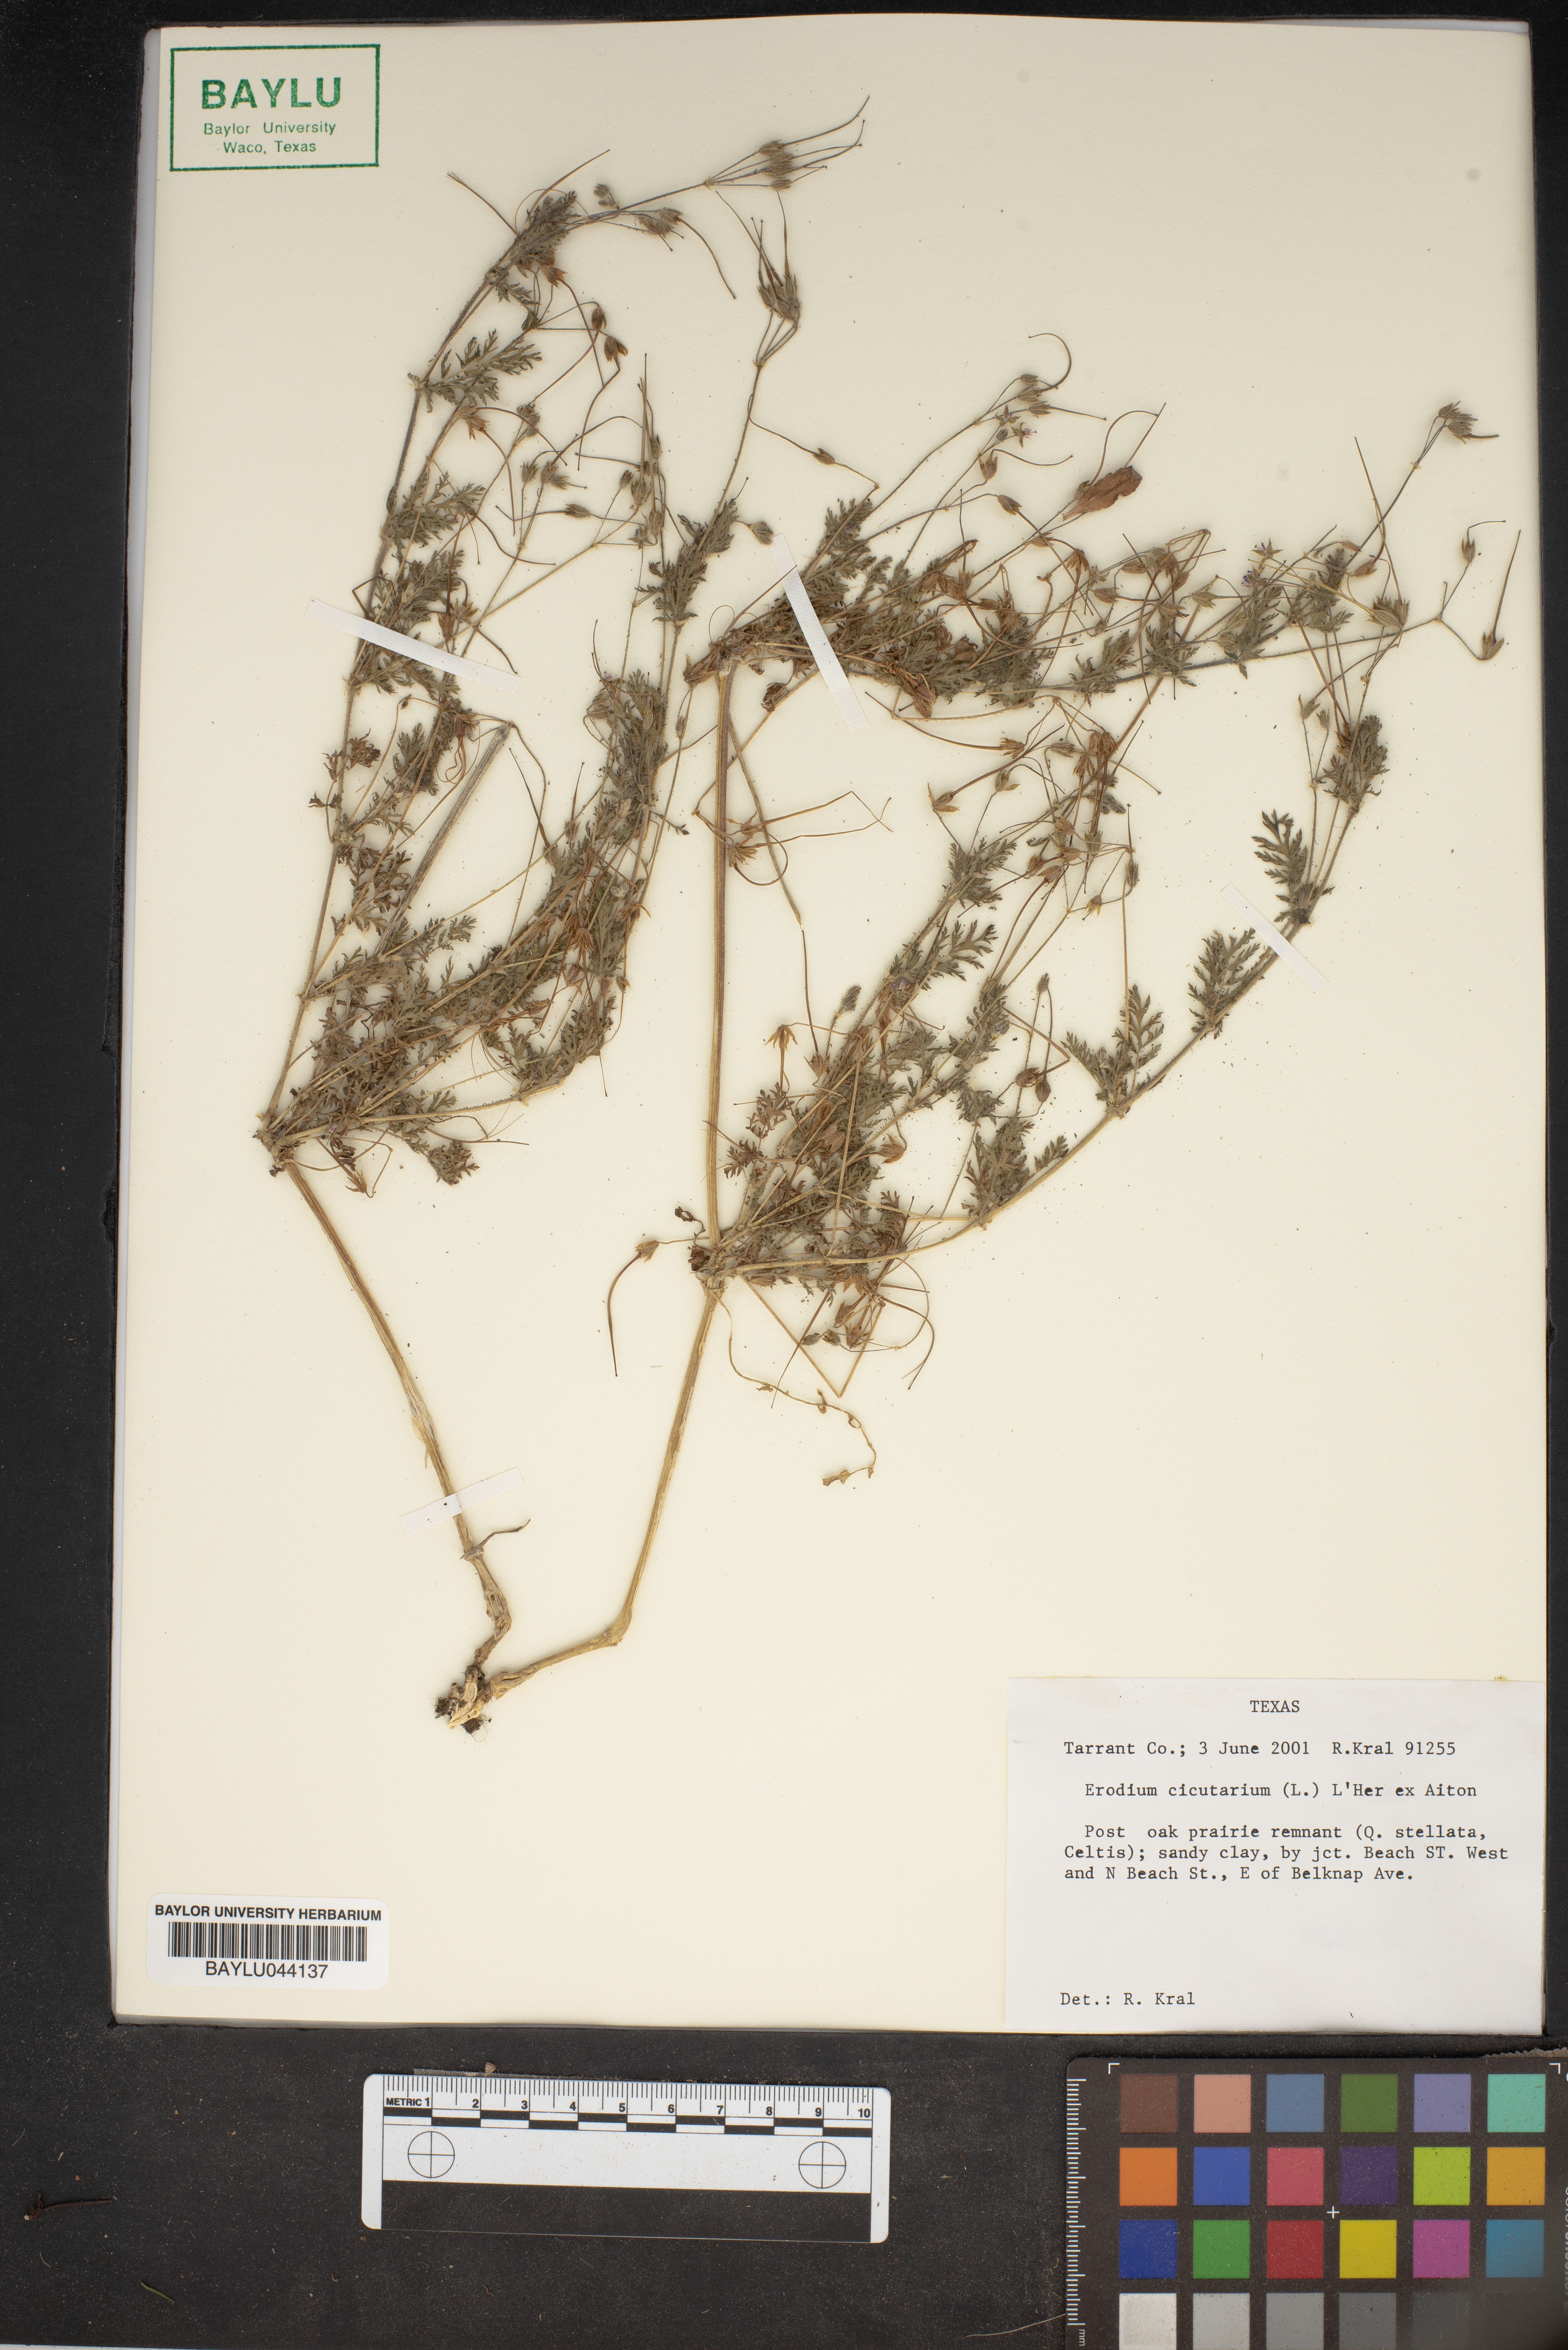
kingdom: Plantae
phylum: Tracheophyta
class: Magnoliopsida
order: Geraniales
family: Geraniaceae
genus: Erodium
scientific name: Erodium cicutarium
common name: Common stork's-bill
